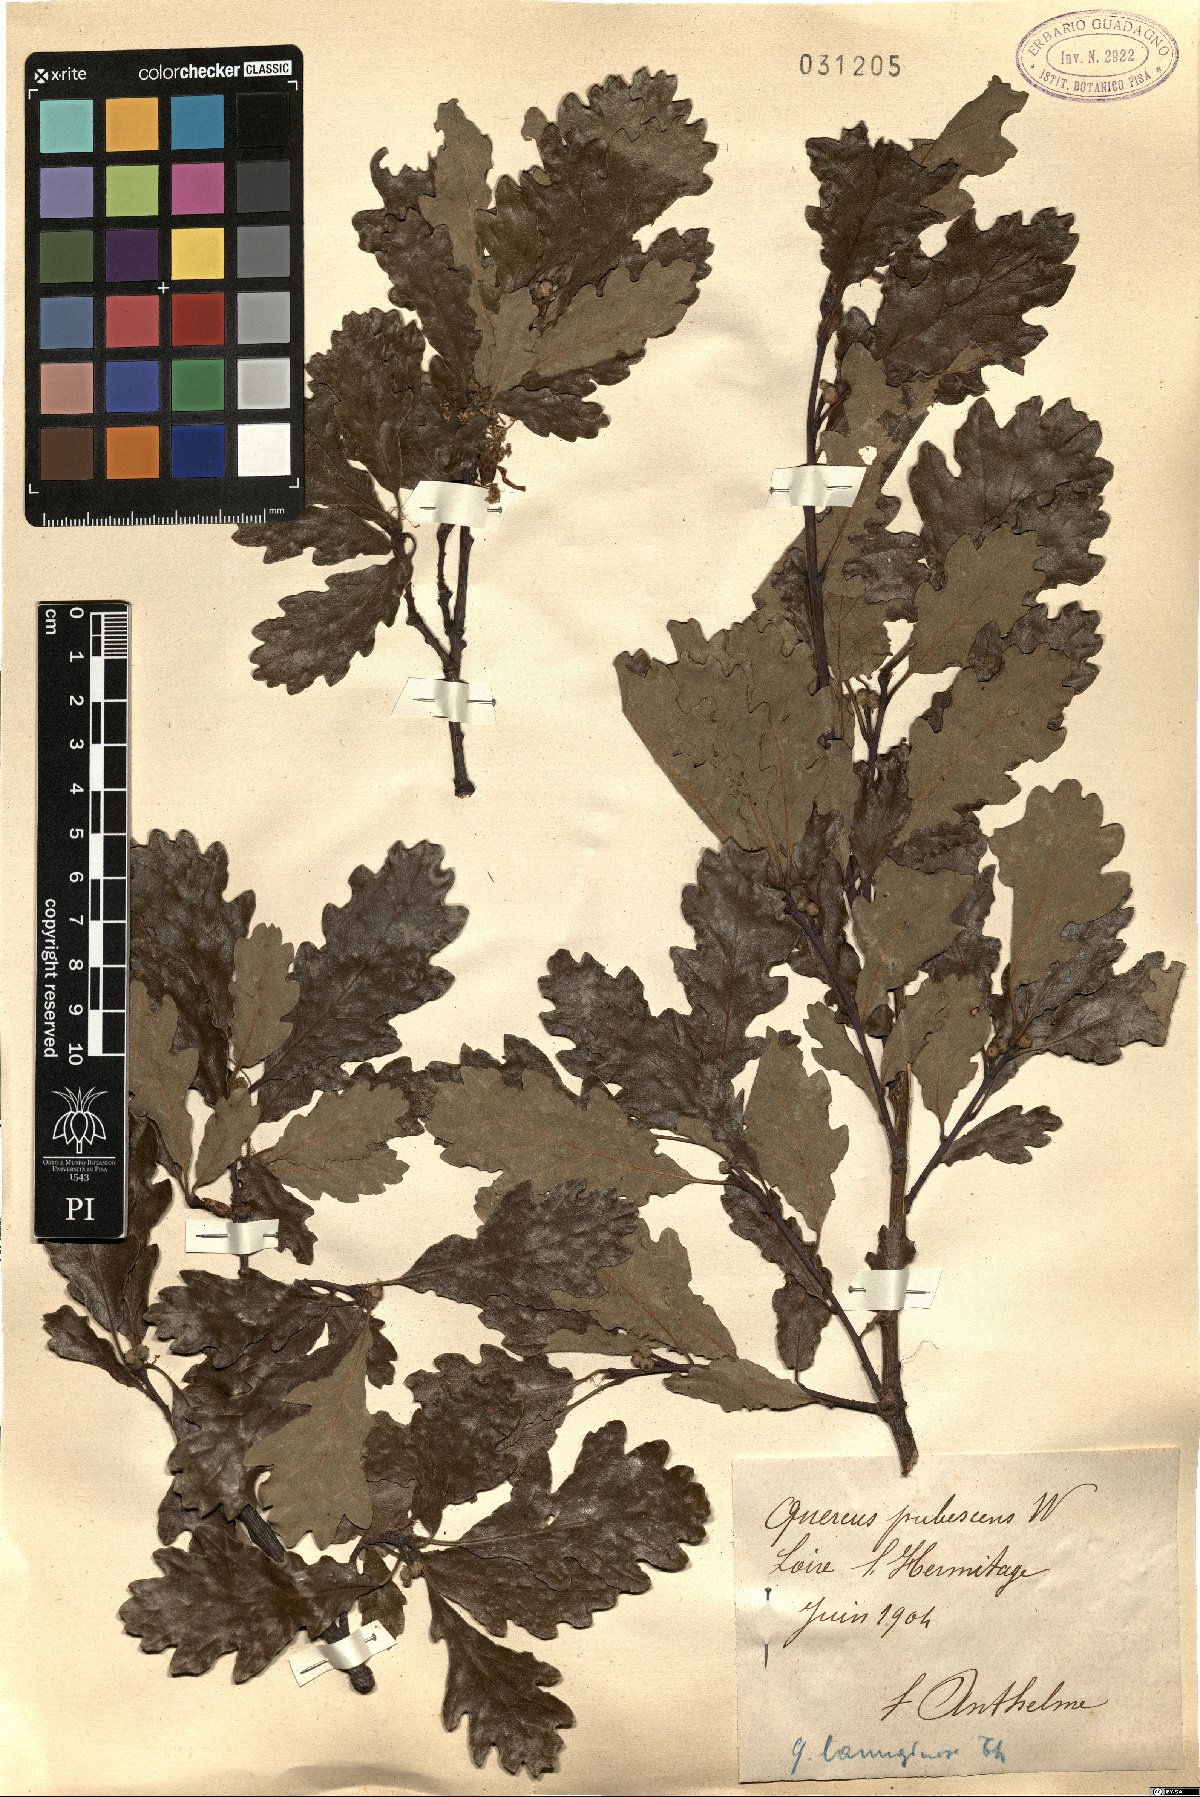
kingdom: Plantae
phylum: Tracheophyta
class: Magnoliopsida
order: Fagales
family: Fagaceae
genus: Quercus
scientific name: Quercus cerris
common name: Turkey oak
